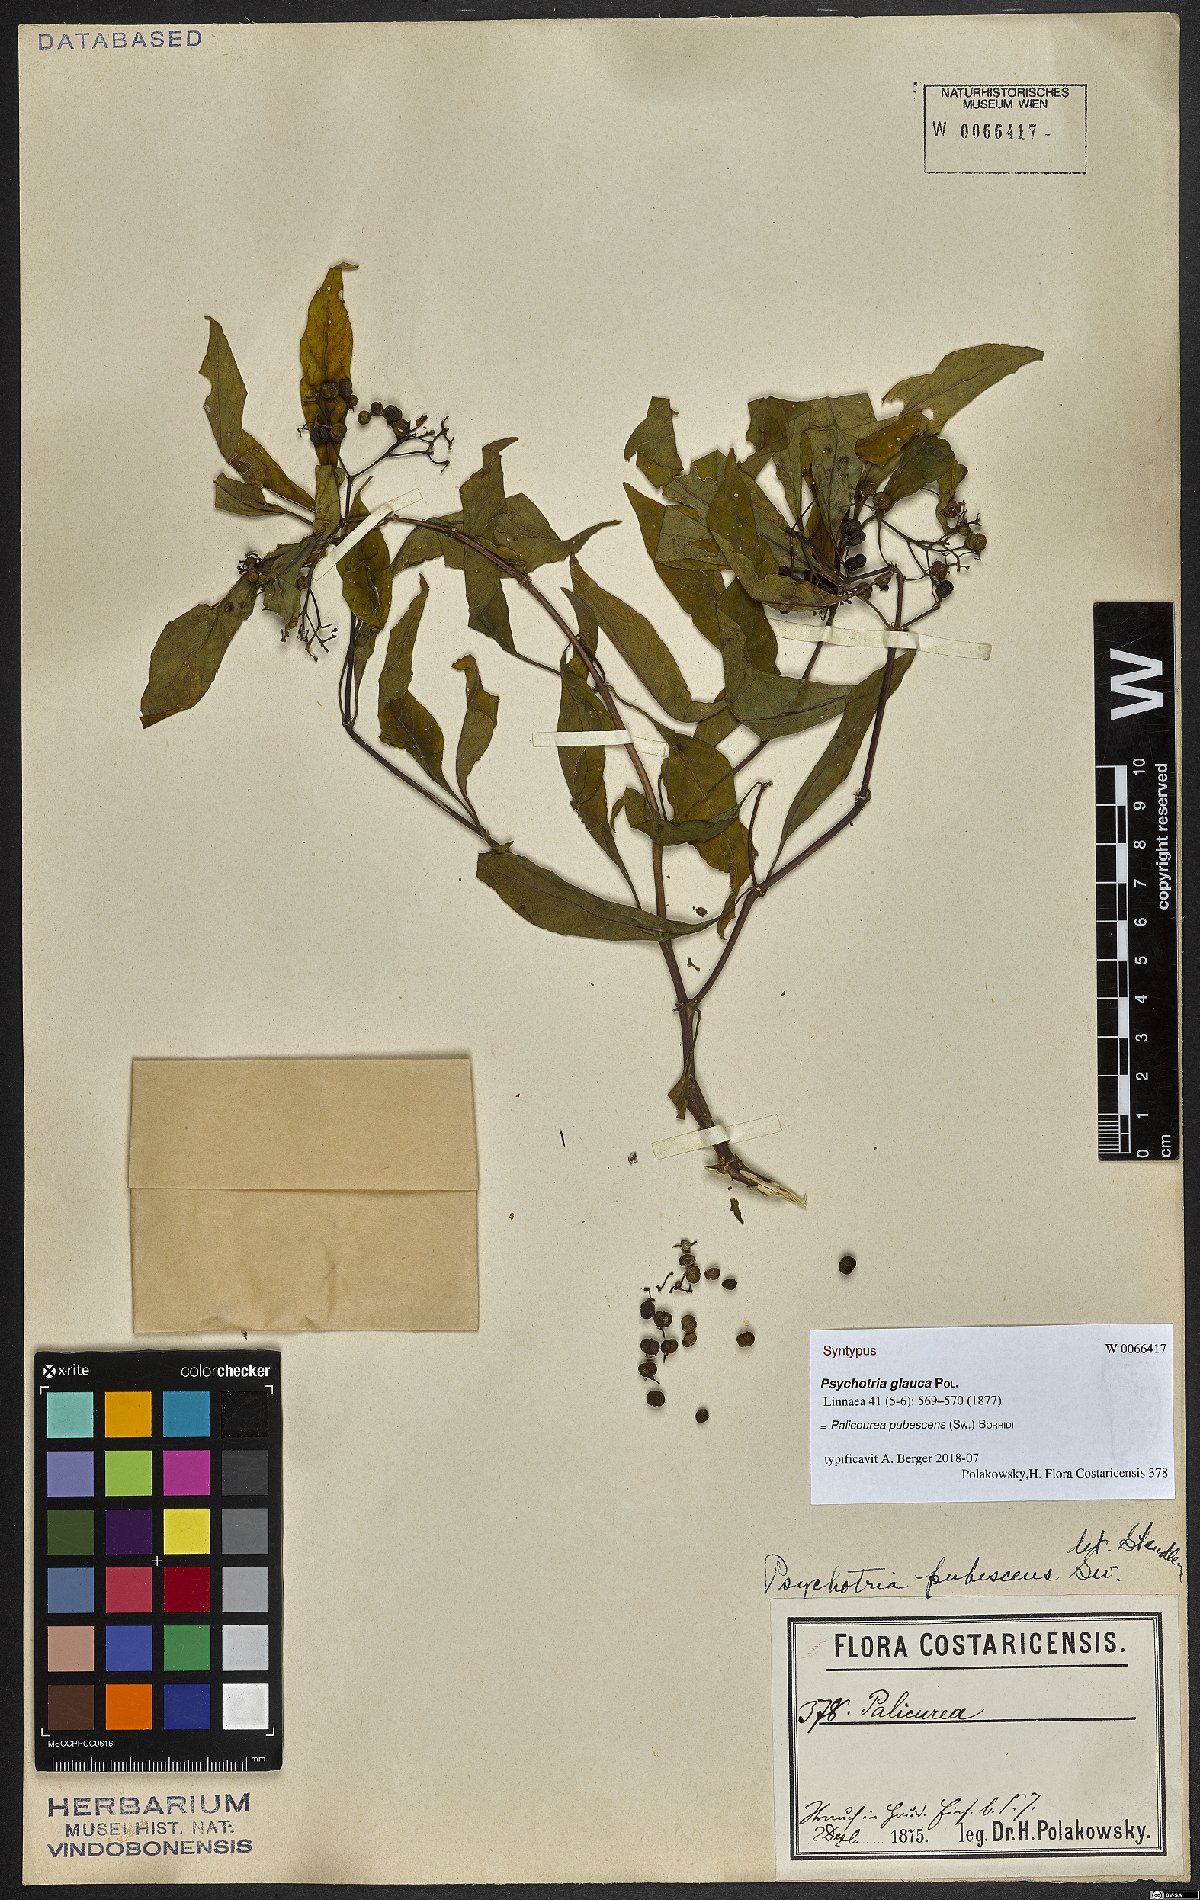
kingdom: Plantae
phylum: Tracheophyta
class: Magnoliopsida
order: Gentianales
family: Rubiaceae
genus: Palicourea
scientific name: Palicourea pubescens
